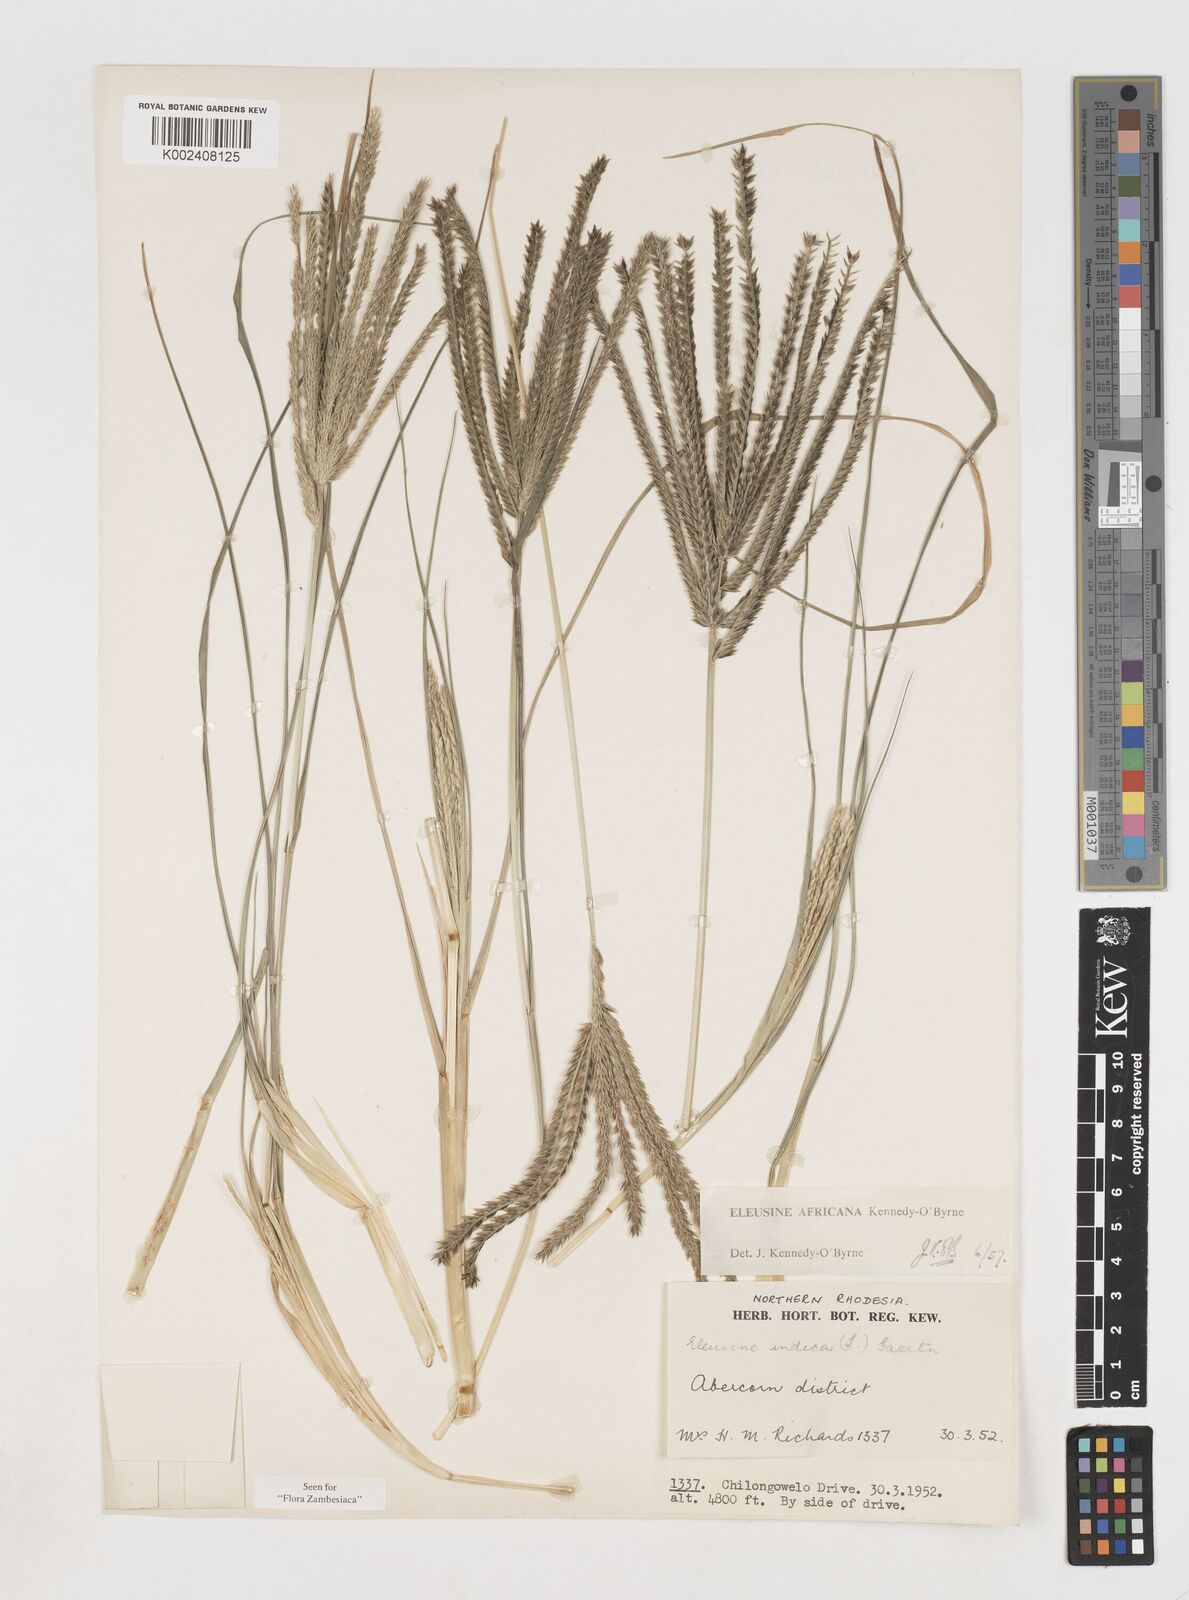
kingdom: Plantae
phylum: Tracheophyta
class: Liliopsida
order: Poales
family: Poaceae
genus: Eleusine
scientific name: Eleusine africana
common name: Wild african finger millet
